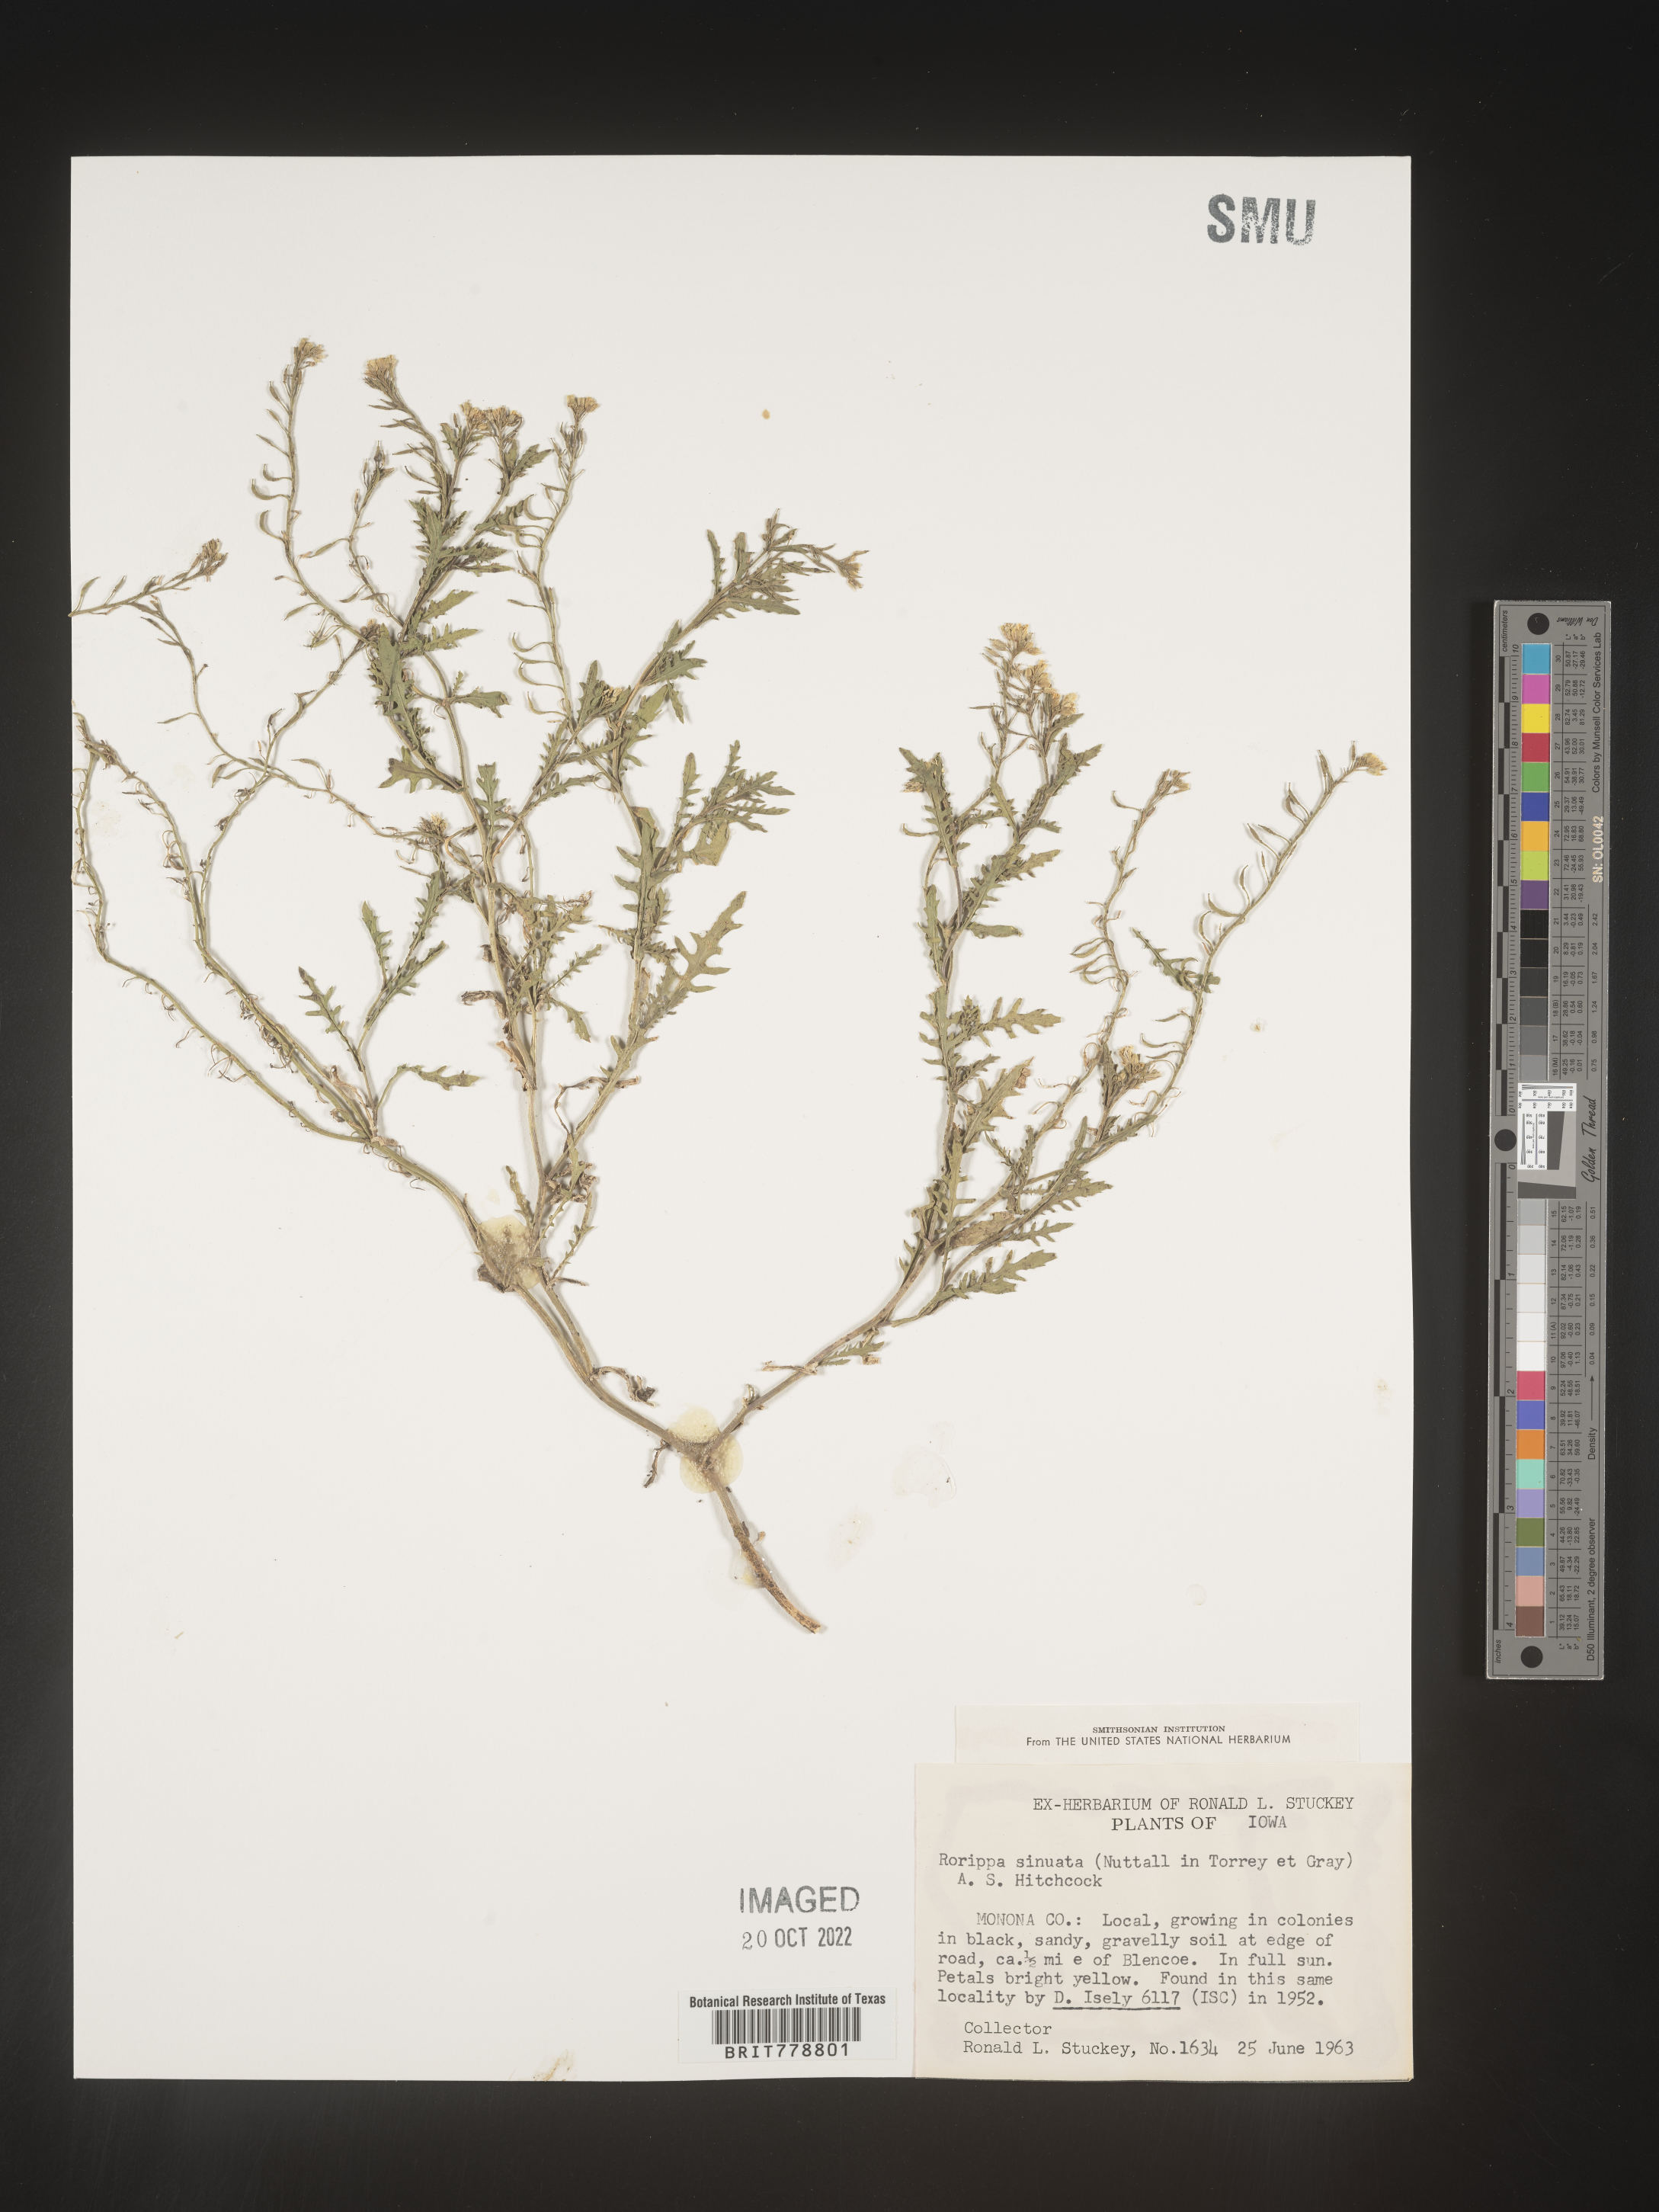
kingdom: Plantae
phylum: Tracheophyta
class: Magnoliopsida
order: Brassicales
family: Brassicaceae
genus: Rorippa
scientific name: Rorippa sinuata
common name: Spread yellow cress
